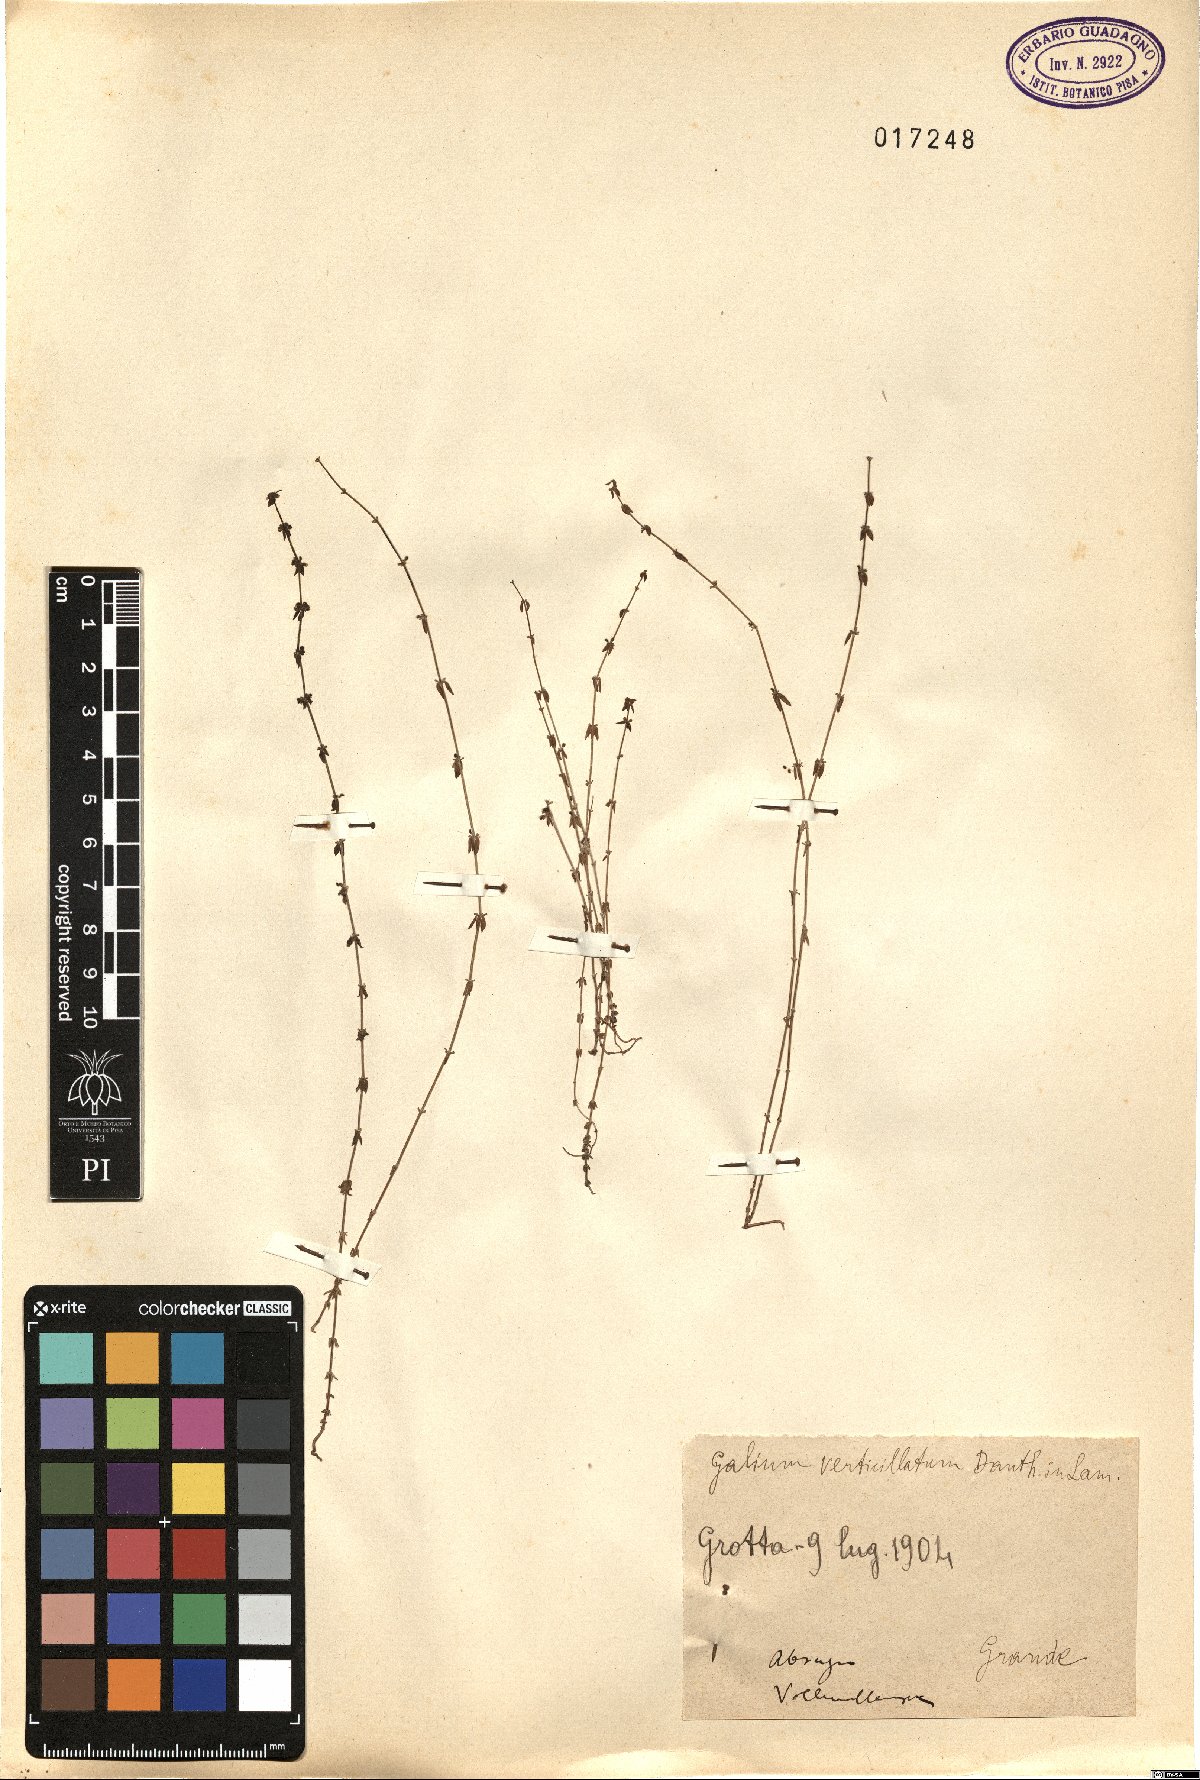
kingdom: Plantae
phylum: Tracheophyta
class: Magnoliopsida
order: Gentianales
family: Rubiaceae
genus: Galium
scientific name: Galium verticillatum
